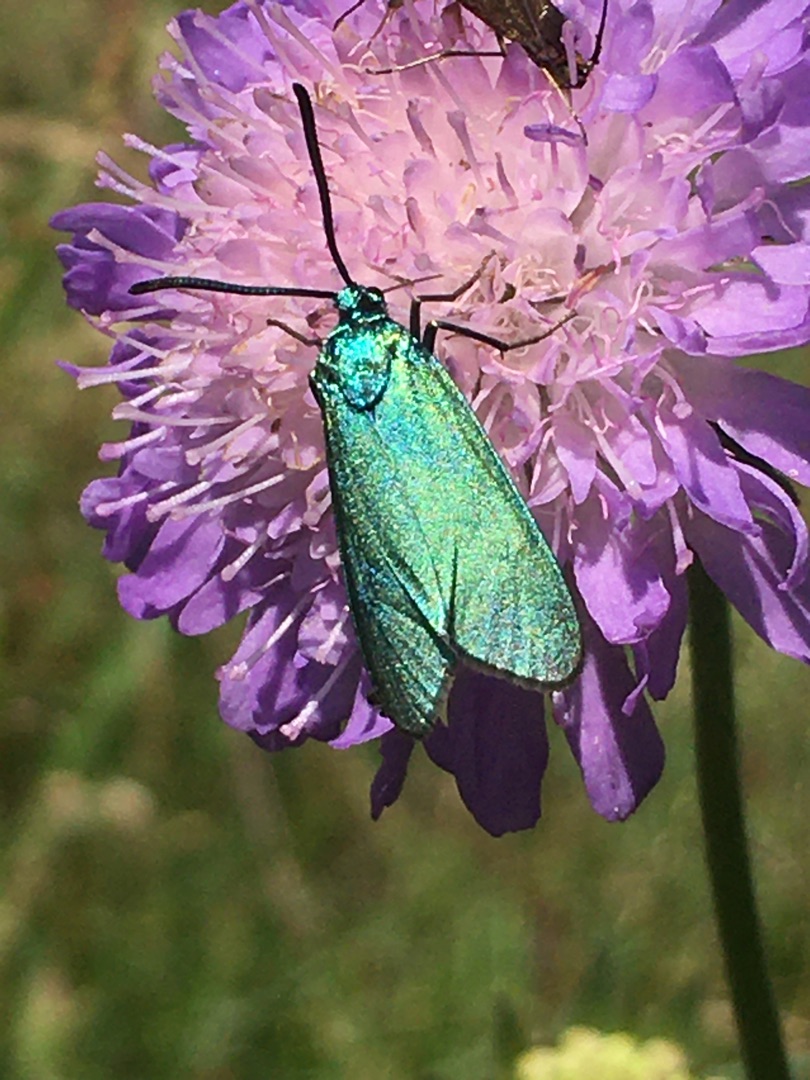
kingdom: Animalia
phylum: Arthropoda
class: Insecta
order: Lepidoptera
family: Zygaenidae
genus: Adscita
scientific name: Adscita statices
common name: Metalvinge
